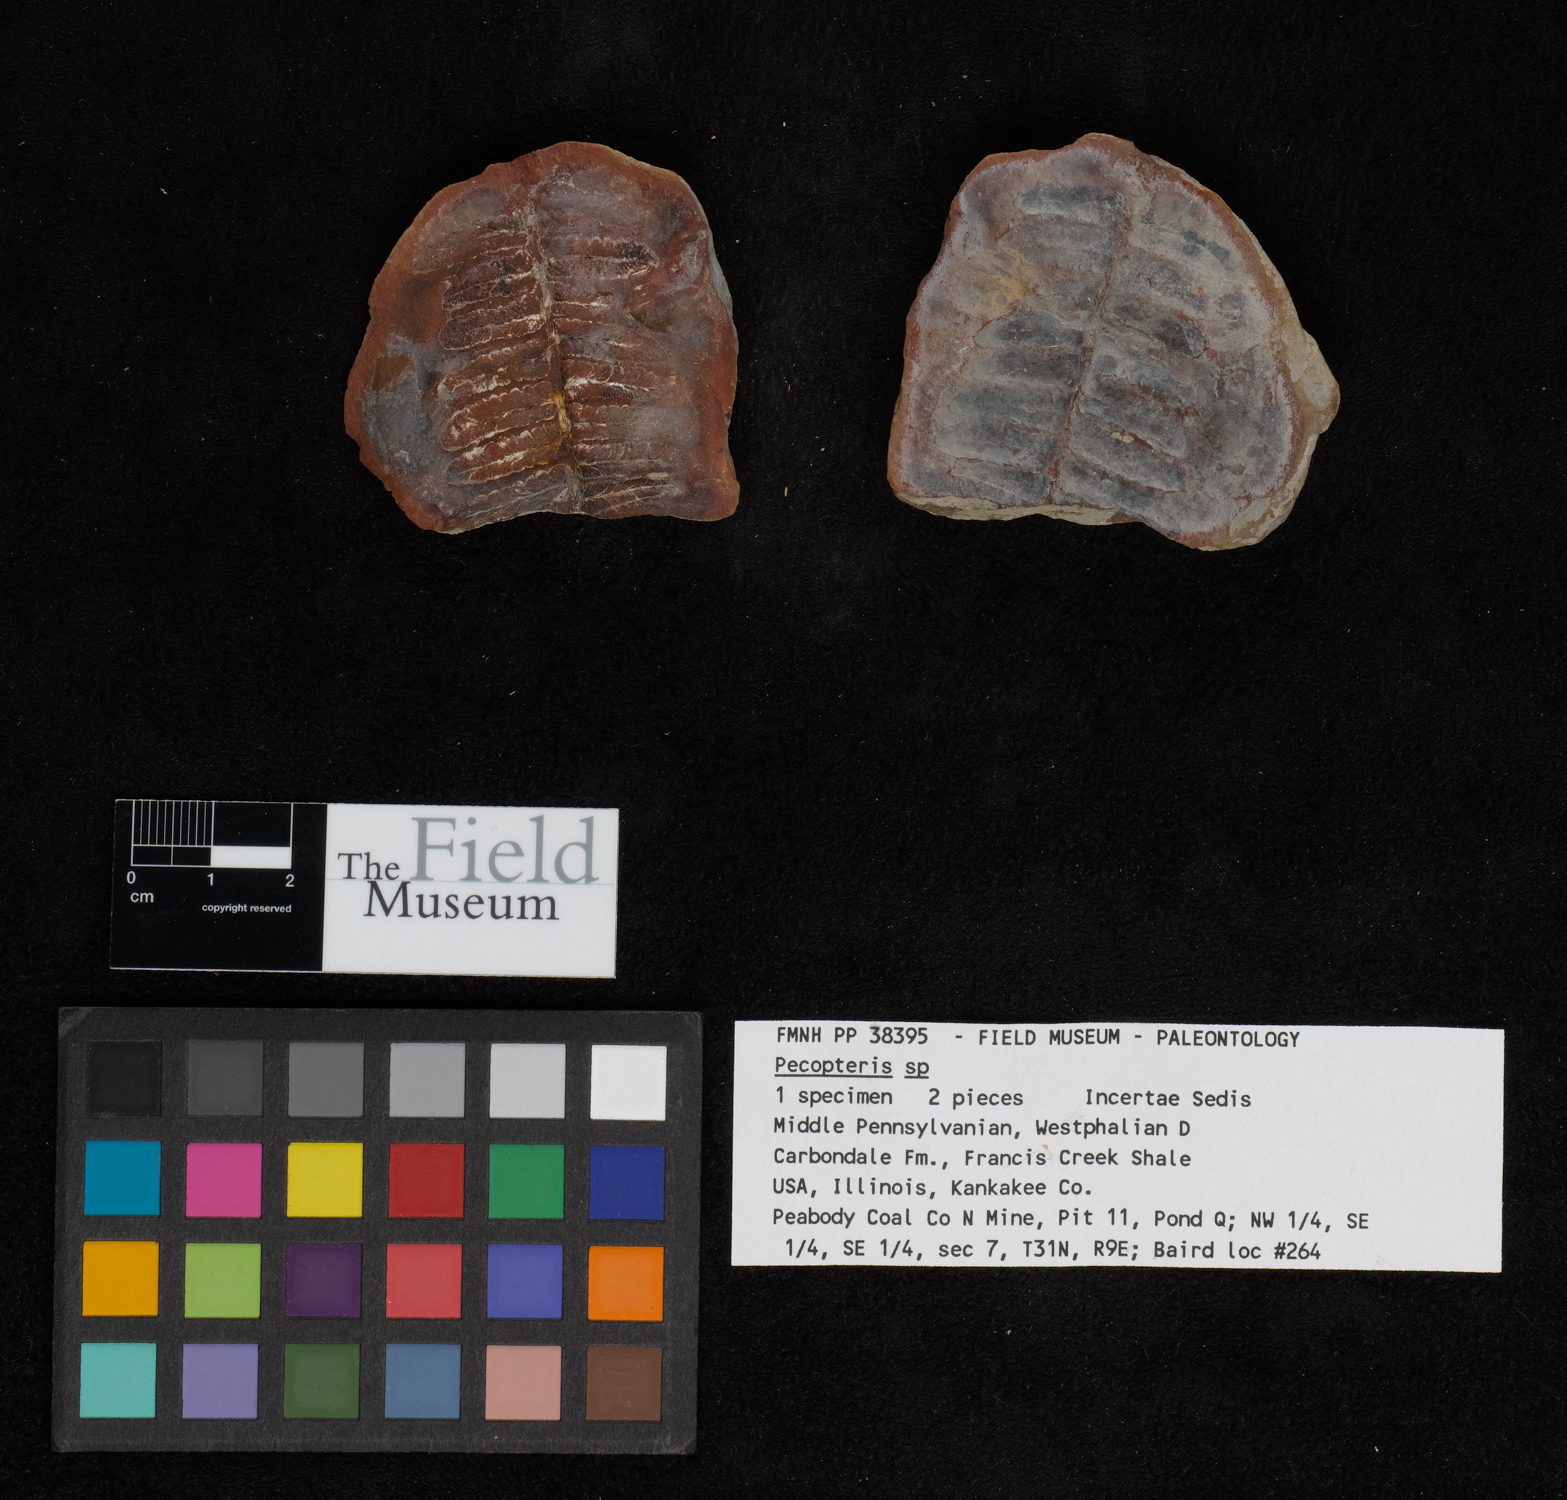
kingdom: Plantae
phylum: Tracheophyta
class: Polypodiopsida
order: Marattiales
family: Asterothecaceae
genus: Pecopteris
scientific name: Pecopteris
